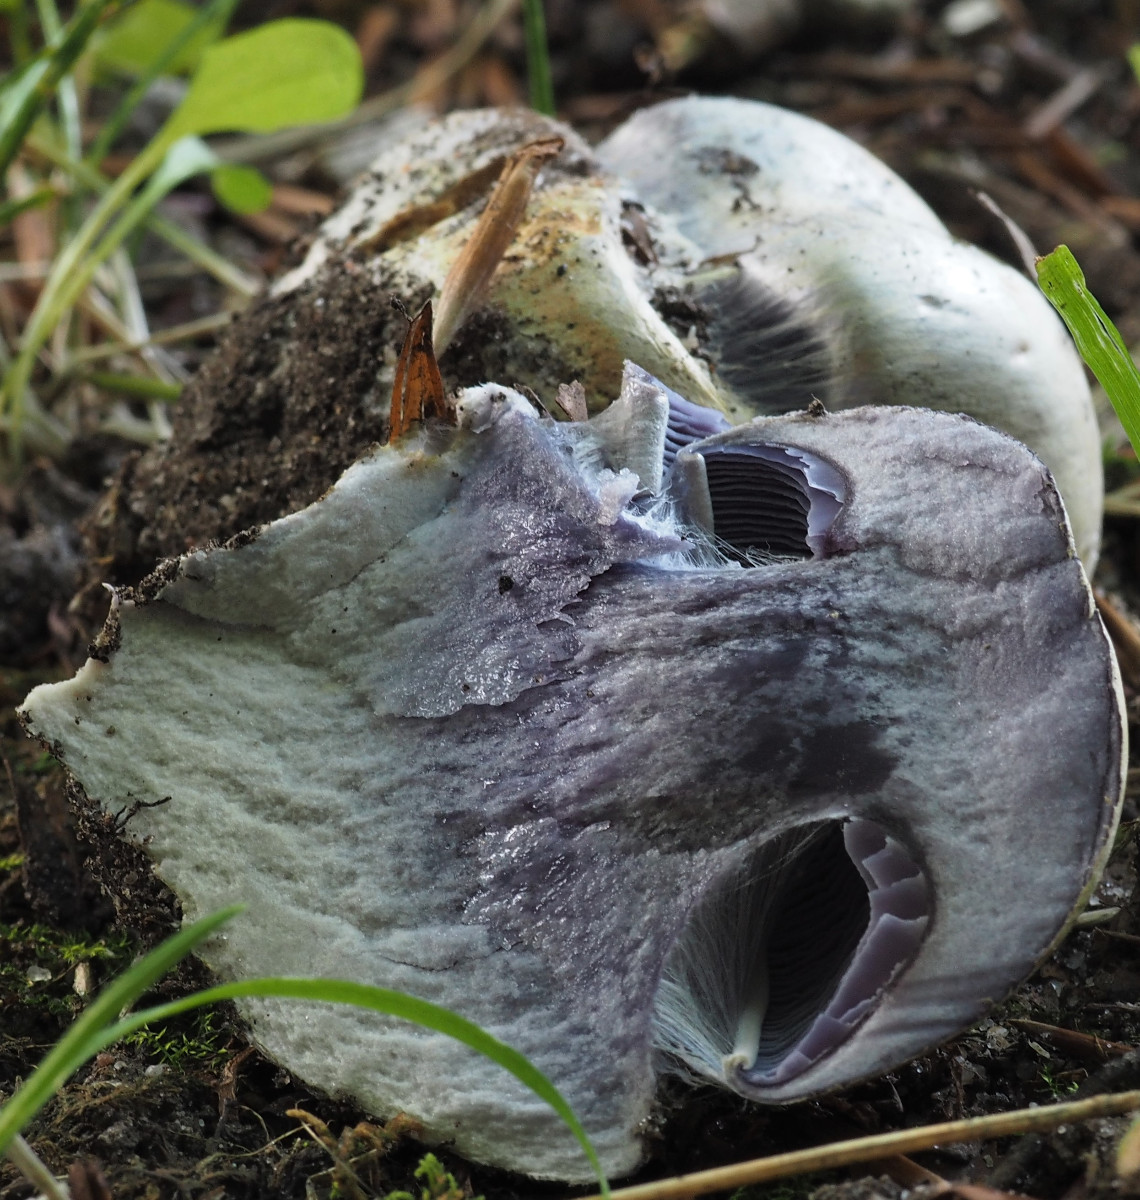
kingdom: Fungi
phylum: Basidiomycota
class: Agaricomycetes
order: Agaricales
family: Cortinariaceae
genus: Cortinarius
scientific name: Cortinarius caerulescens
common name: blåkødet slørhat
